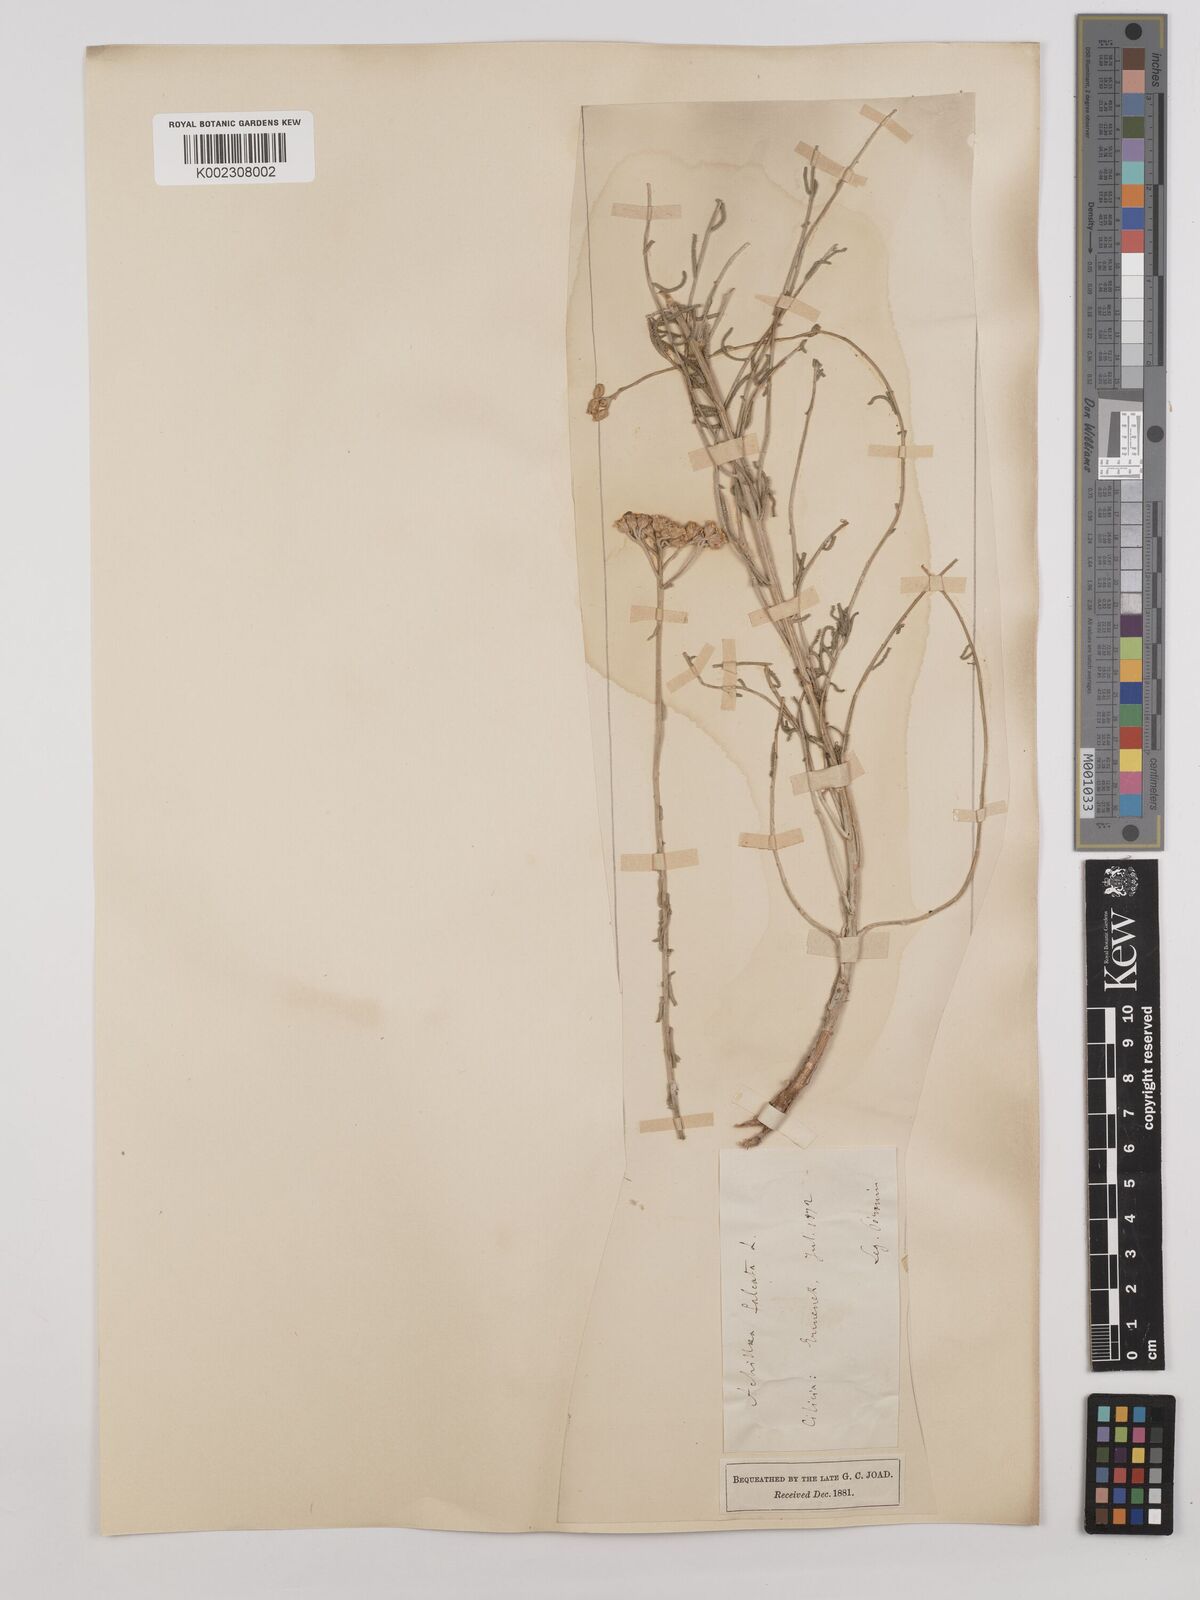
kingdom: Plantae
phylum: Tracheophyta
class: Magnoliopsida
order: Asterales
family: Asteraceae
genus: Achillea
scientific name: Achillea chamaemelifolia
